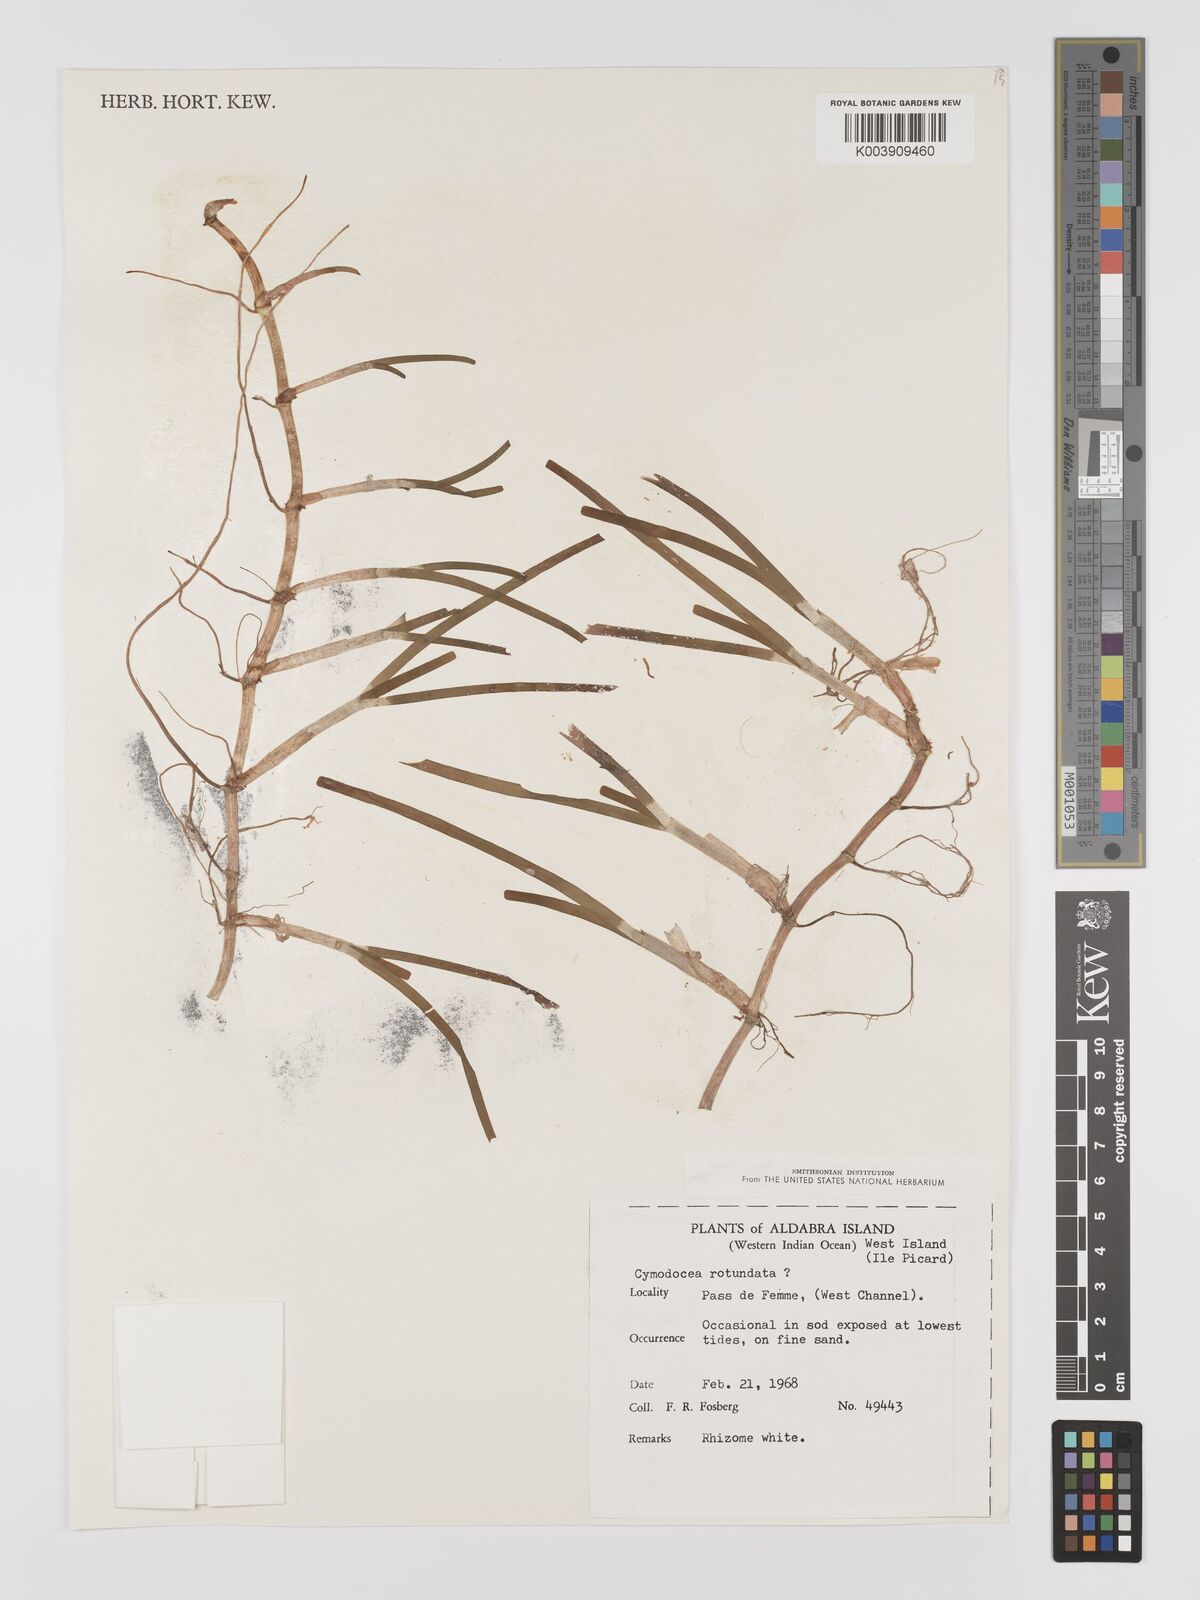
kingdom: Plantae
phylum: Tracheophyta
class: Liliopsida
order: Alismatales
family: Cymodoceaceae
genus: Cymodocea
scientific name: Cymodocea rotundata
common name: Species code: cr
